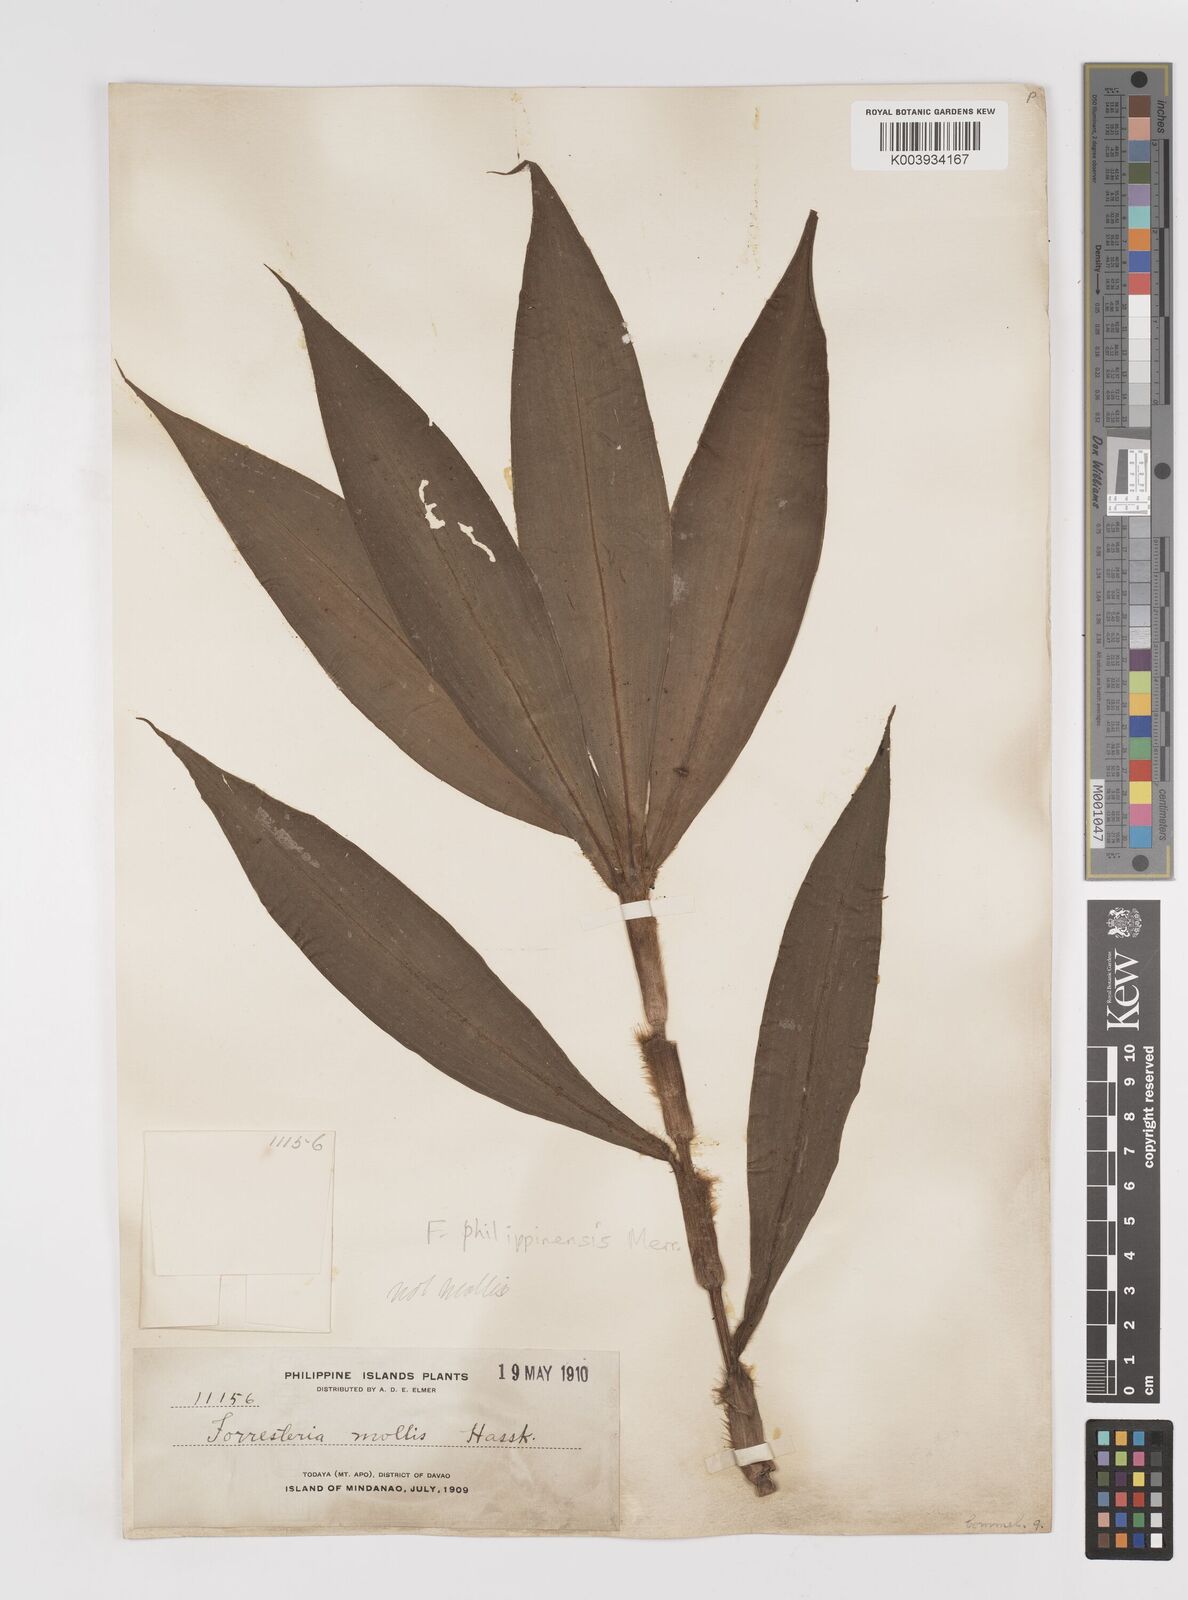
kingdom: Plantae
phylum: Tracheophyta
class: Liliopsida
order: Commelinales
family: Commelinaceae
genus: Amischotolype
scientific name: Amischotolype
